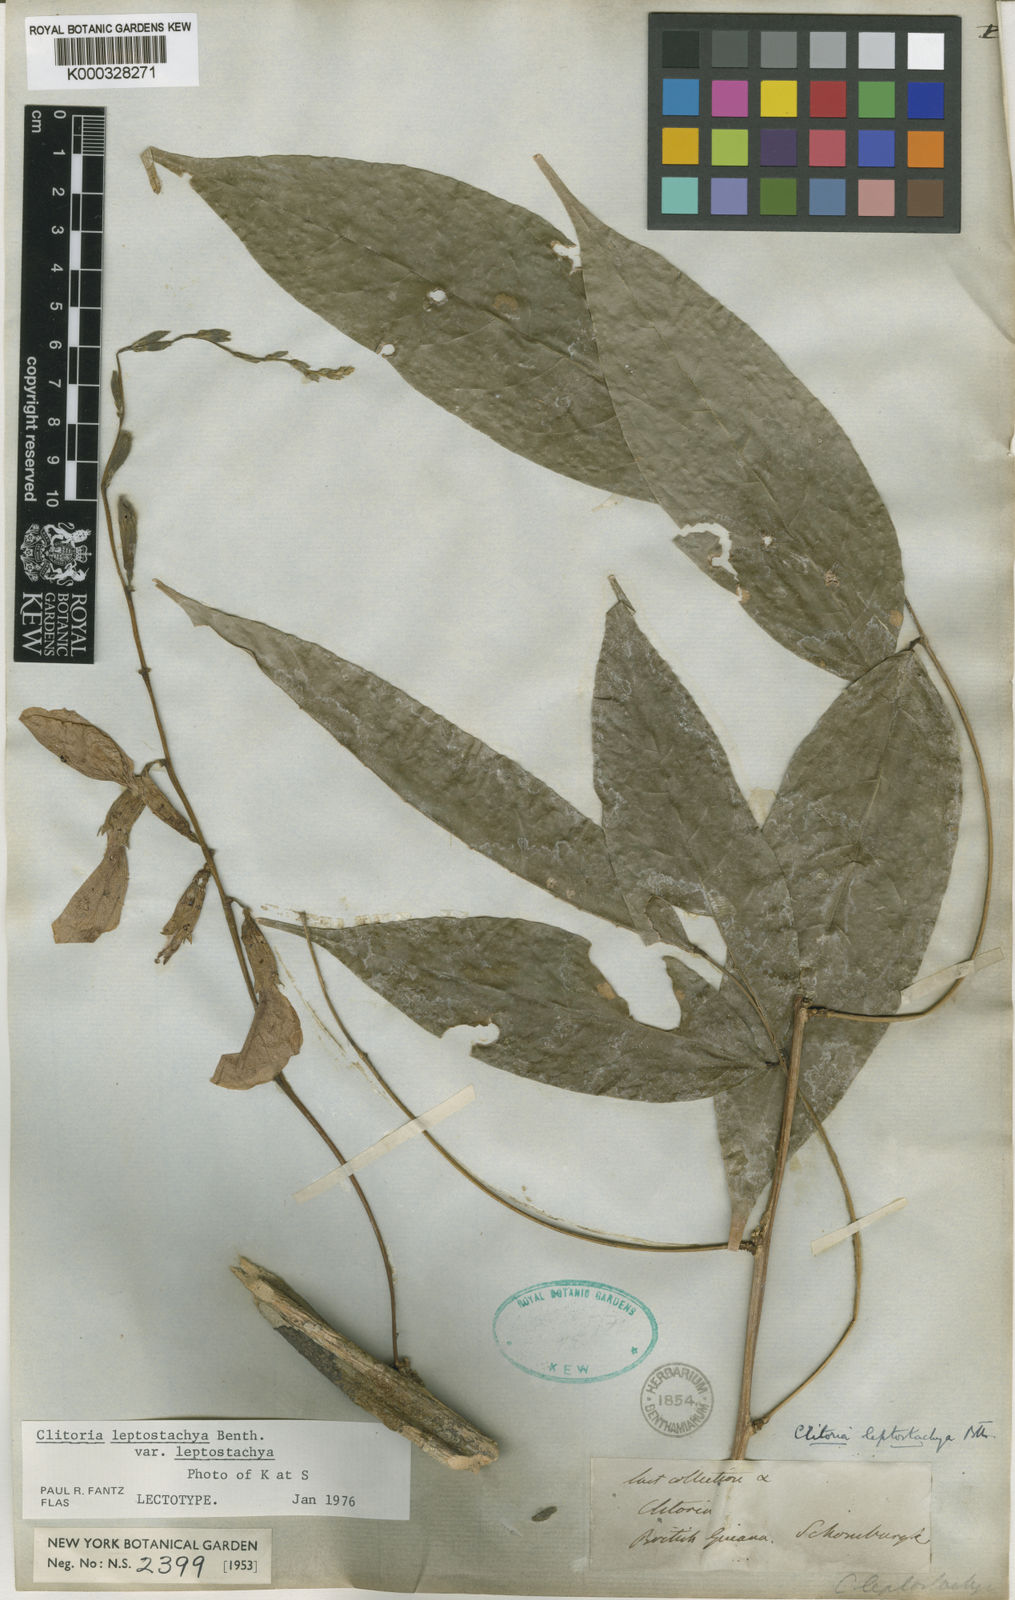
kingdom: Plantae
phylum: Tracheophyta
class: Magnoliopsida
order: Fabales
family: Fabaceae
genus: Clitoria
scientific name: Clitoria
